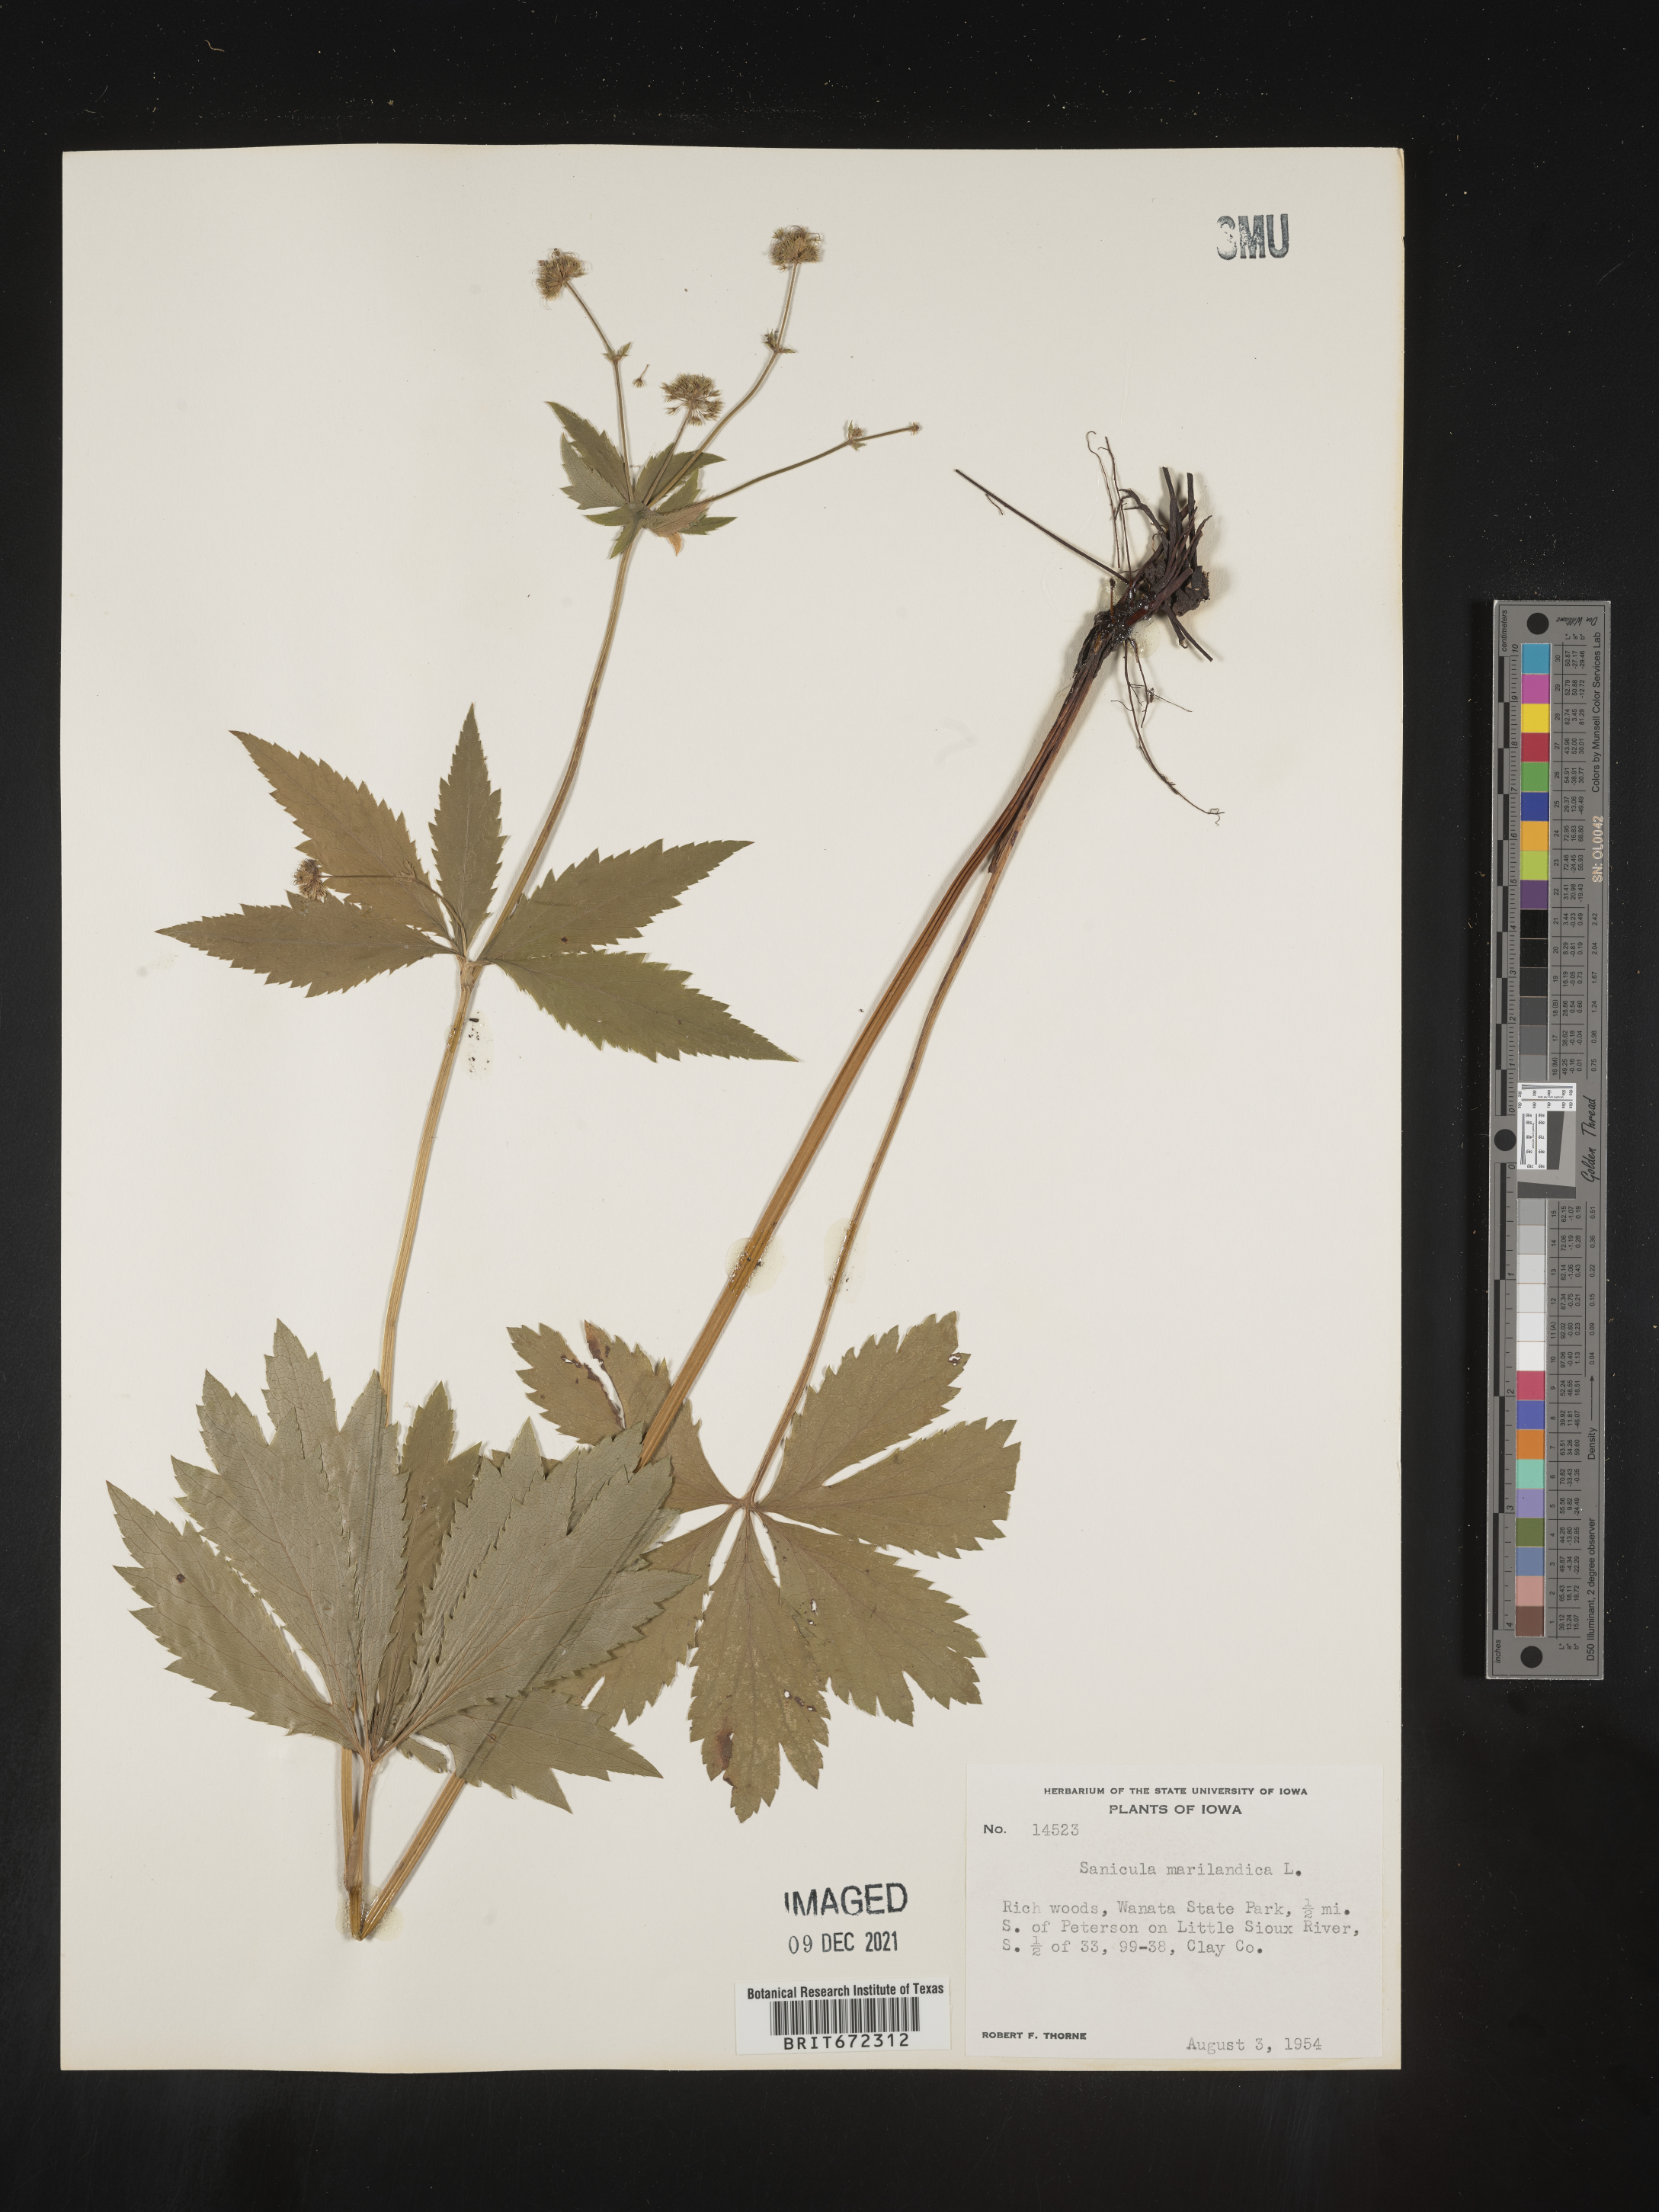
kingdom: Plantae
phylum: Tracheophyta
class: Magnoliopsida
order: Apiales
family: Apiaceae
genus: Sanicula
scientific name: Sanicula marilandica
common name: Black snakeroot
